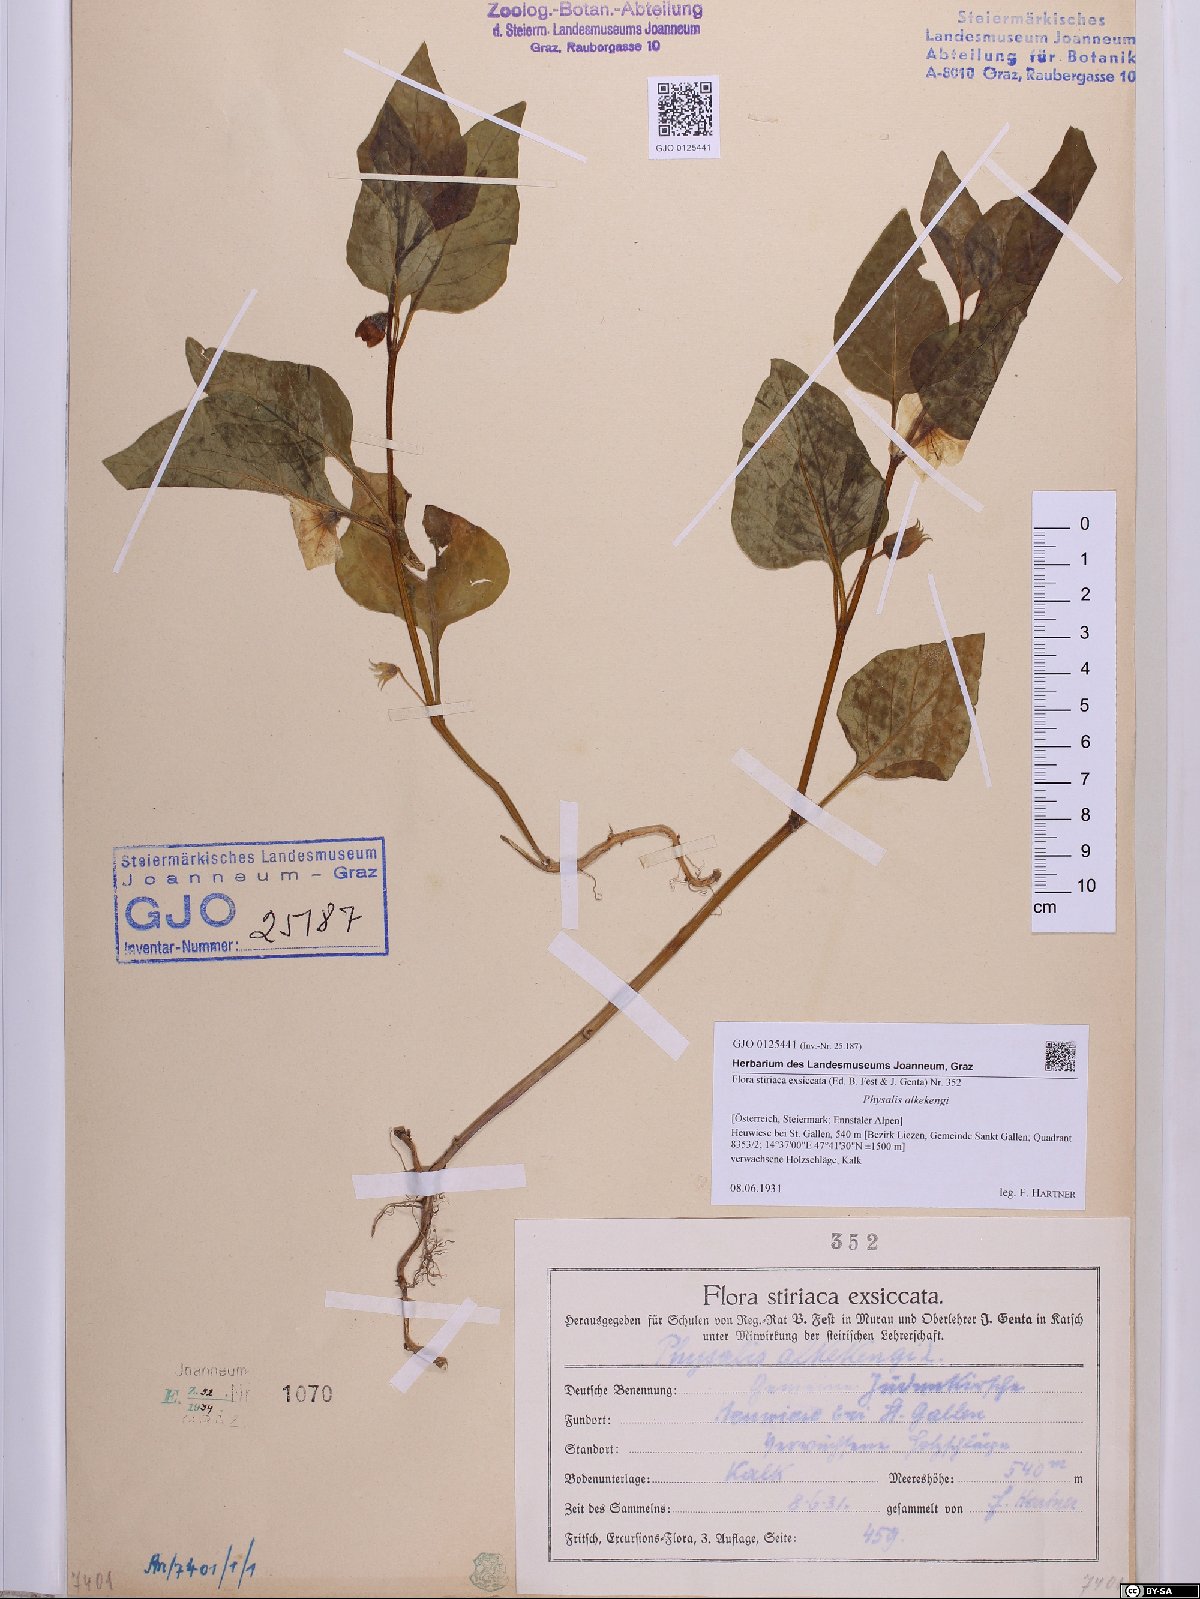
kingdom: Plantae
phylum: Tracheophyta
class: Magnoliopsida
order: Solanales
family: Solanaceae
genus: Alkekengi
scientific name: Alkekengi officinarum
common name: Japanese-lantern
